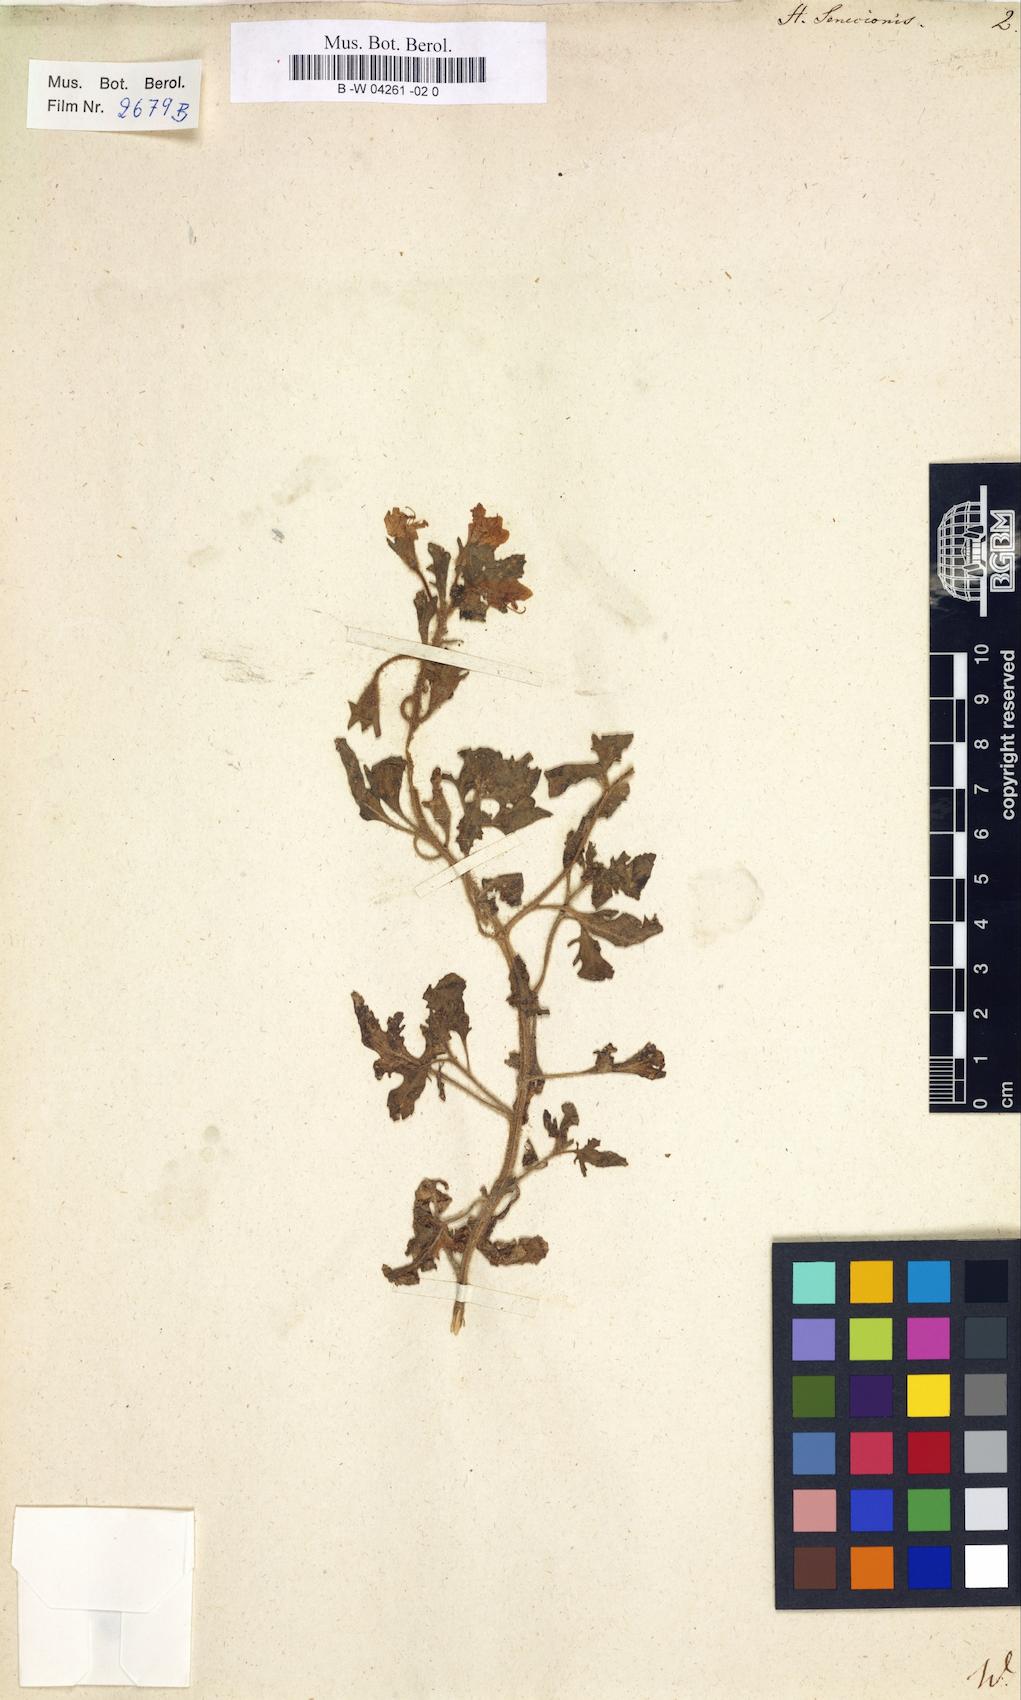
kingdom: Plantae
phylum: Tracheophyta
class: Magnoliopsida
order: Solanales
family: Solanaceae
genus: Hyoscyamus
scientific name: Hyoscyamus senecionis
